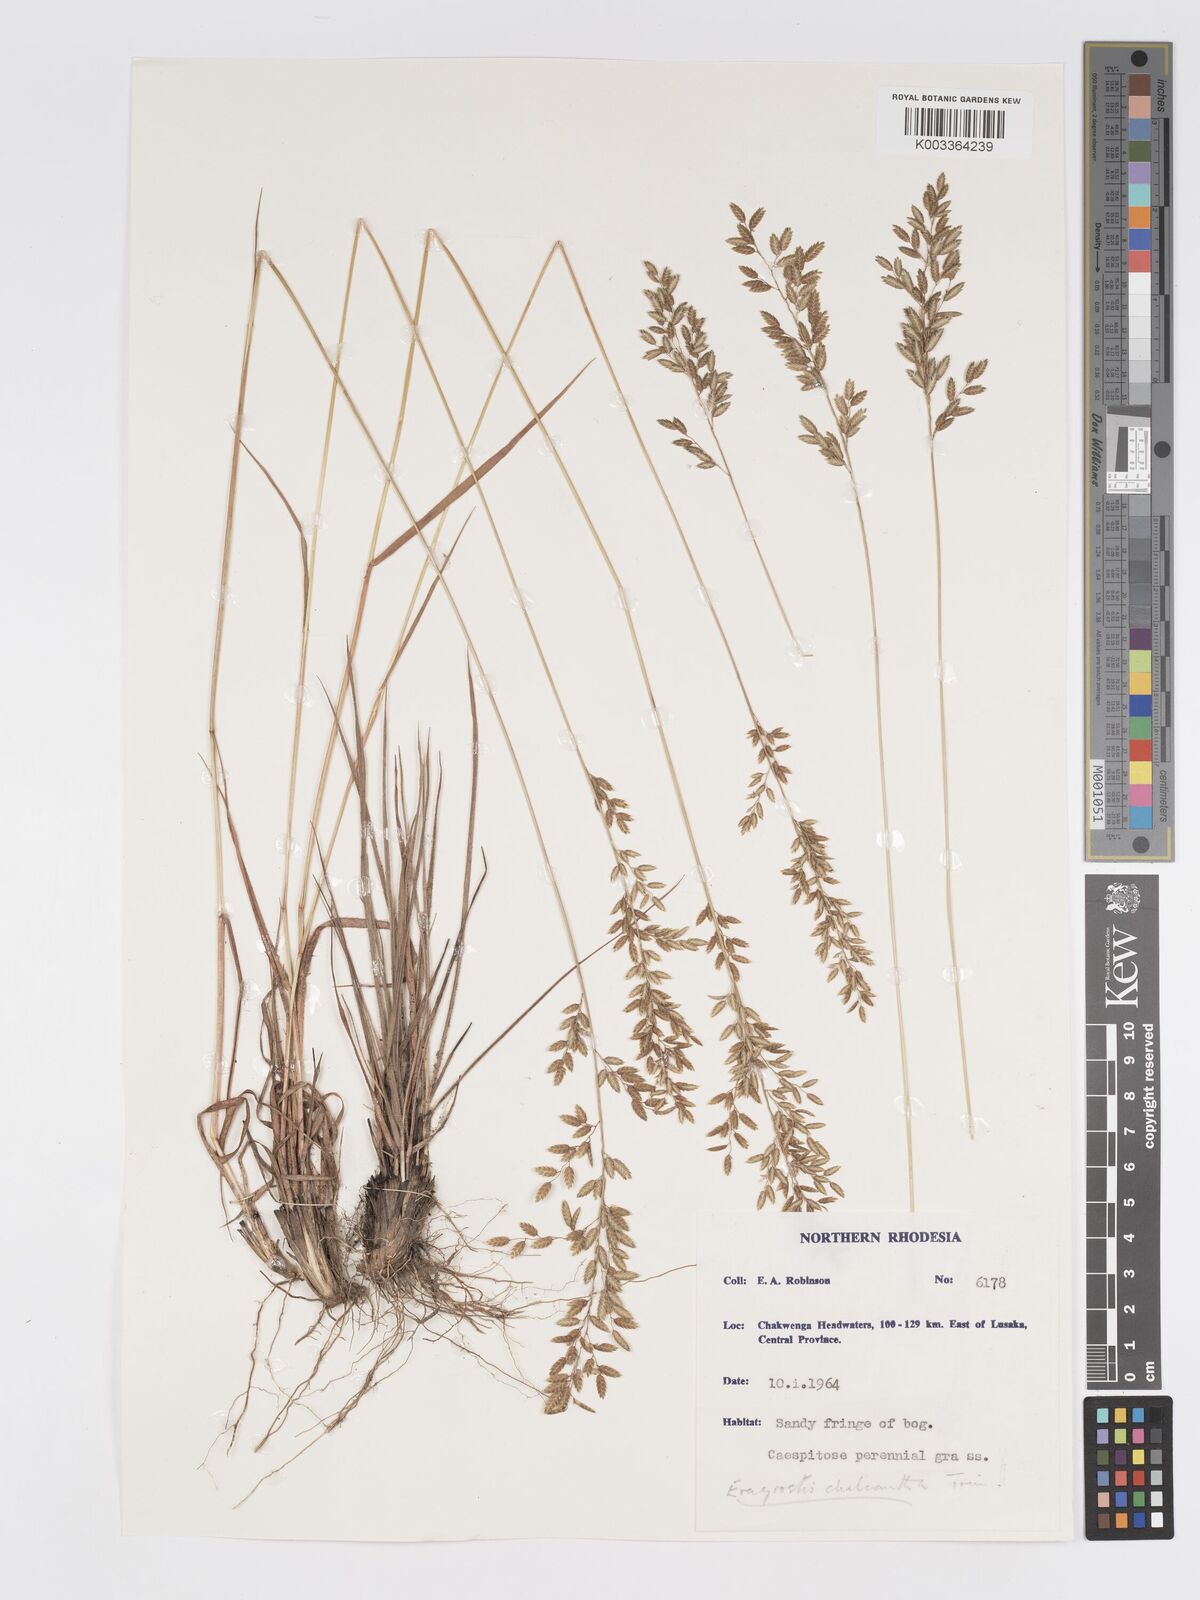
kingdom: Plantae
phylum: Tracheophyta
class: Liliopsida
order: Poales
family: Poaceae
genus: Eragrostis
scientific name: Eragrostis racemosa
